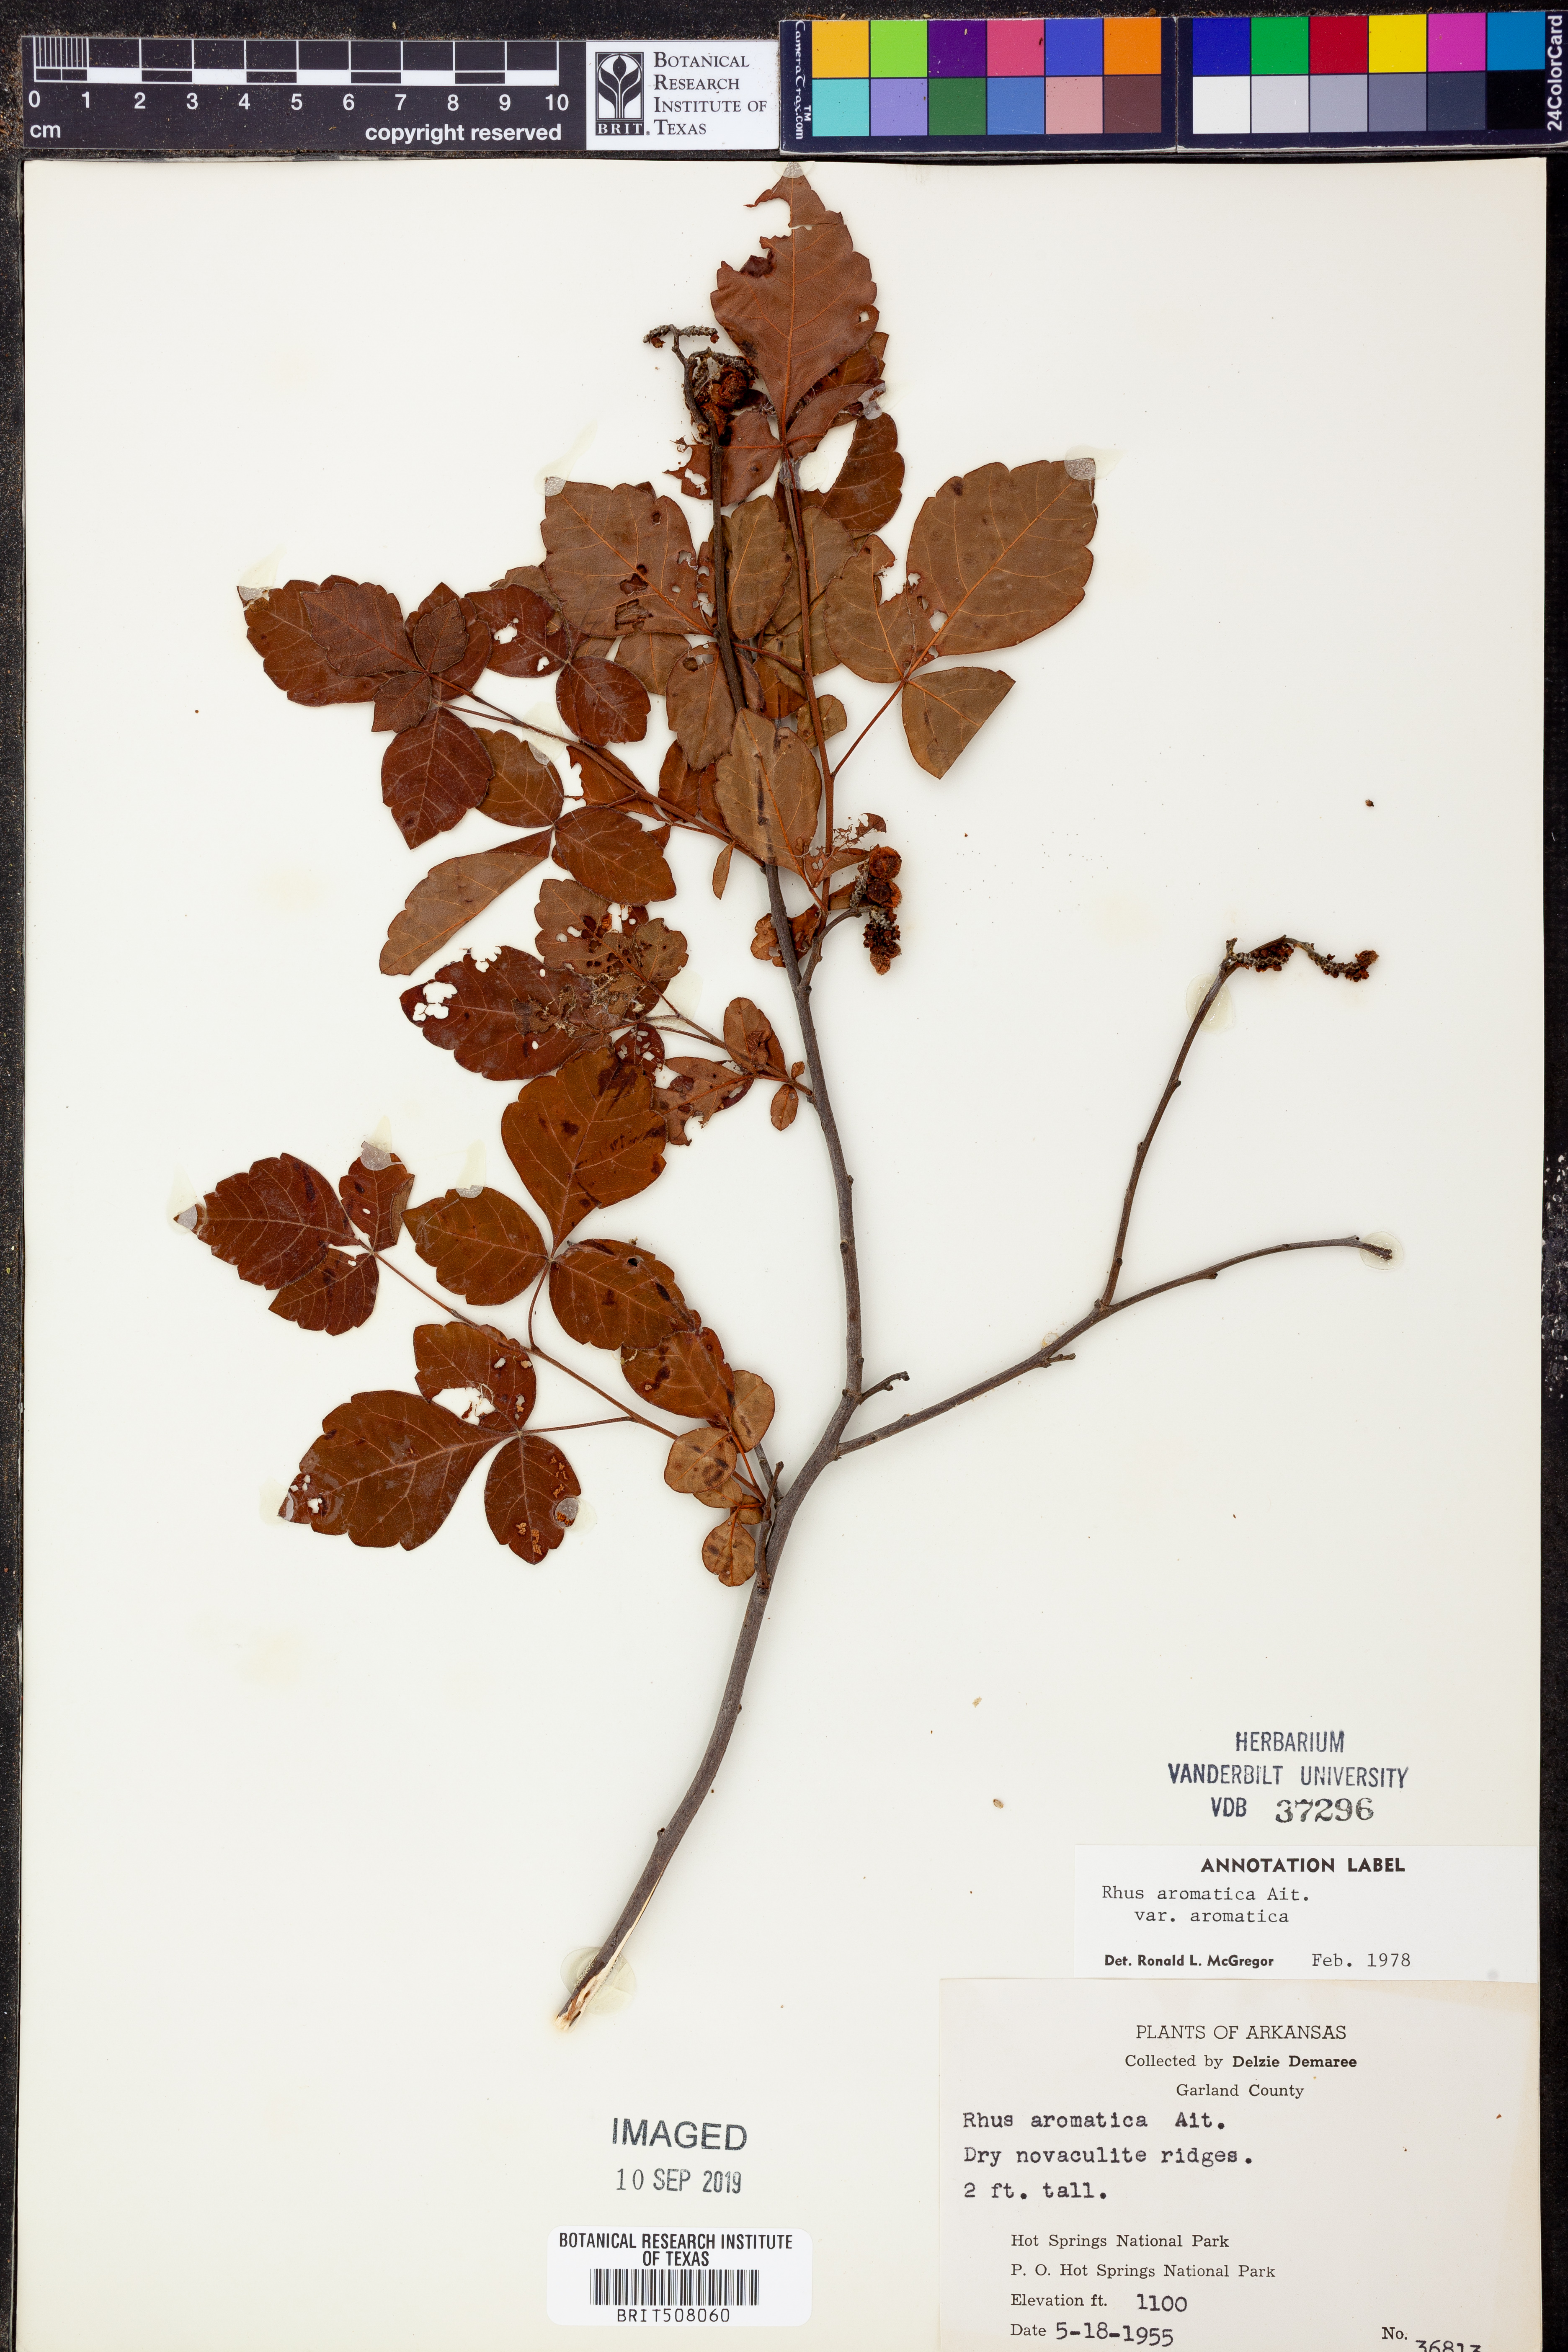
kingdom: Plantae
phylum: Tracheophyta
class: Magnoliopsida
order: Sapindales
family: Anacardiaceae
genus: Rhus
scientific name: Rhus aromatica
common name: Aromatic sumac
